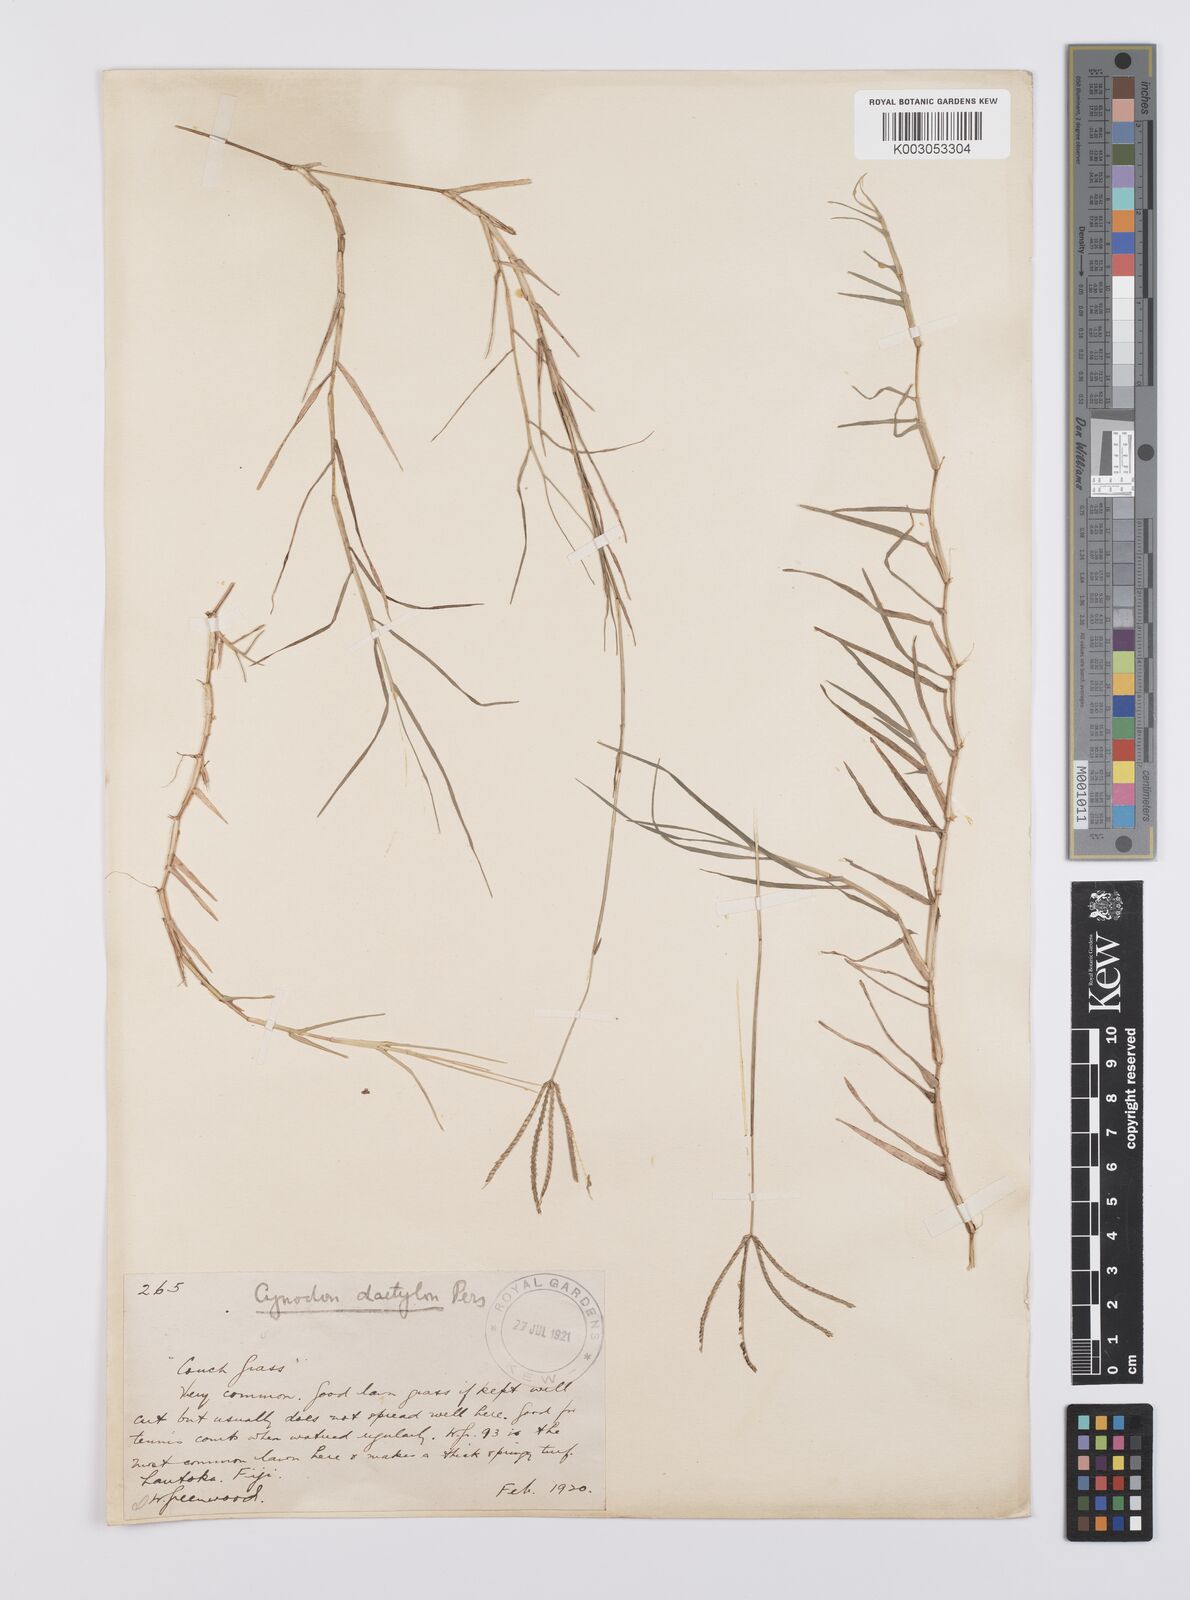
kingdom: Plantae
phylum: Tracheophyta
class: Liliopsida
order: Poales
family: Poaceae
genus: Cynodon
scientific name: Cynodon dactylon
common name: Bermuda grass
